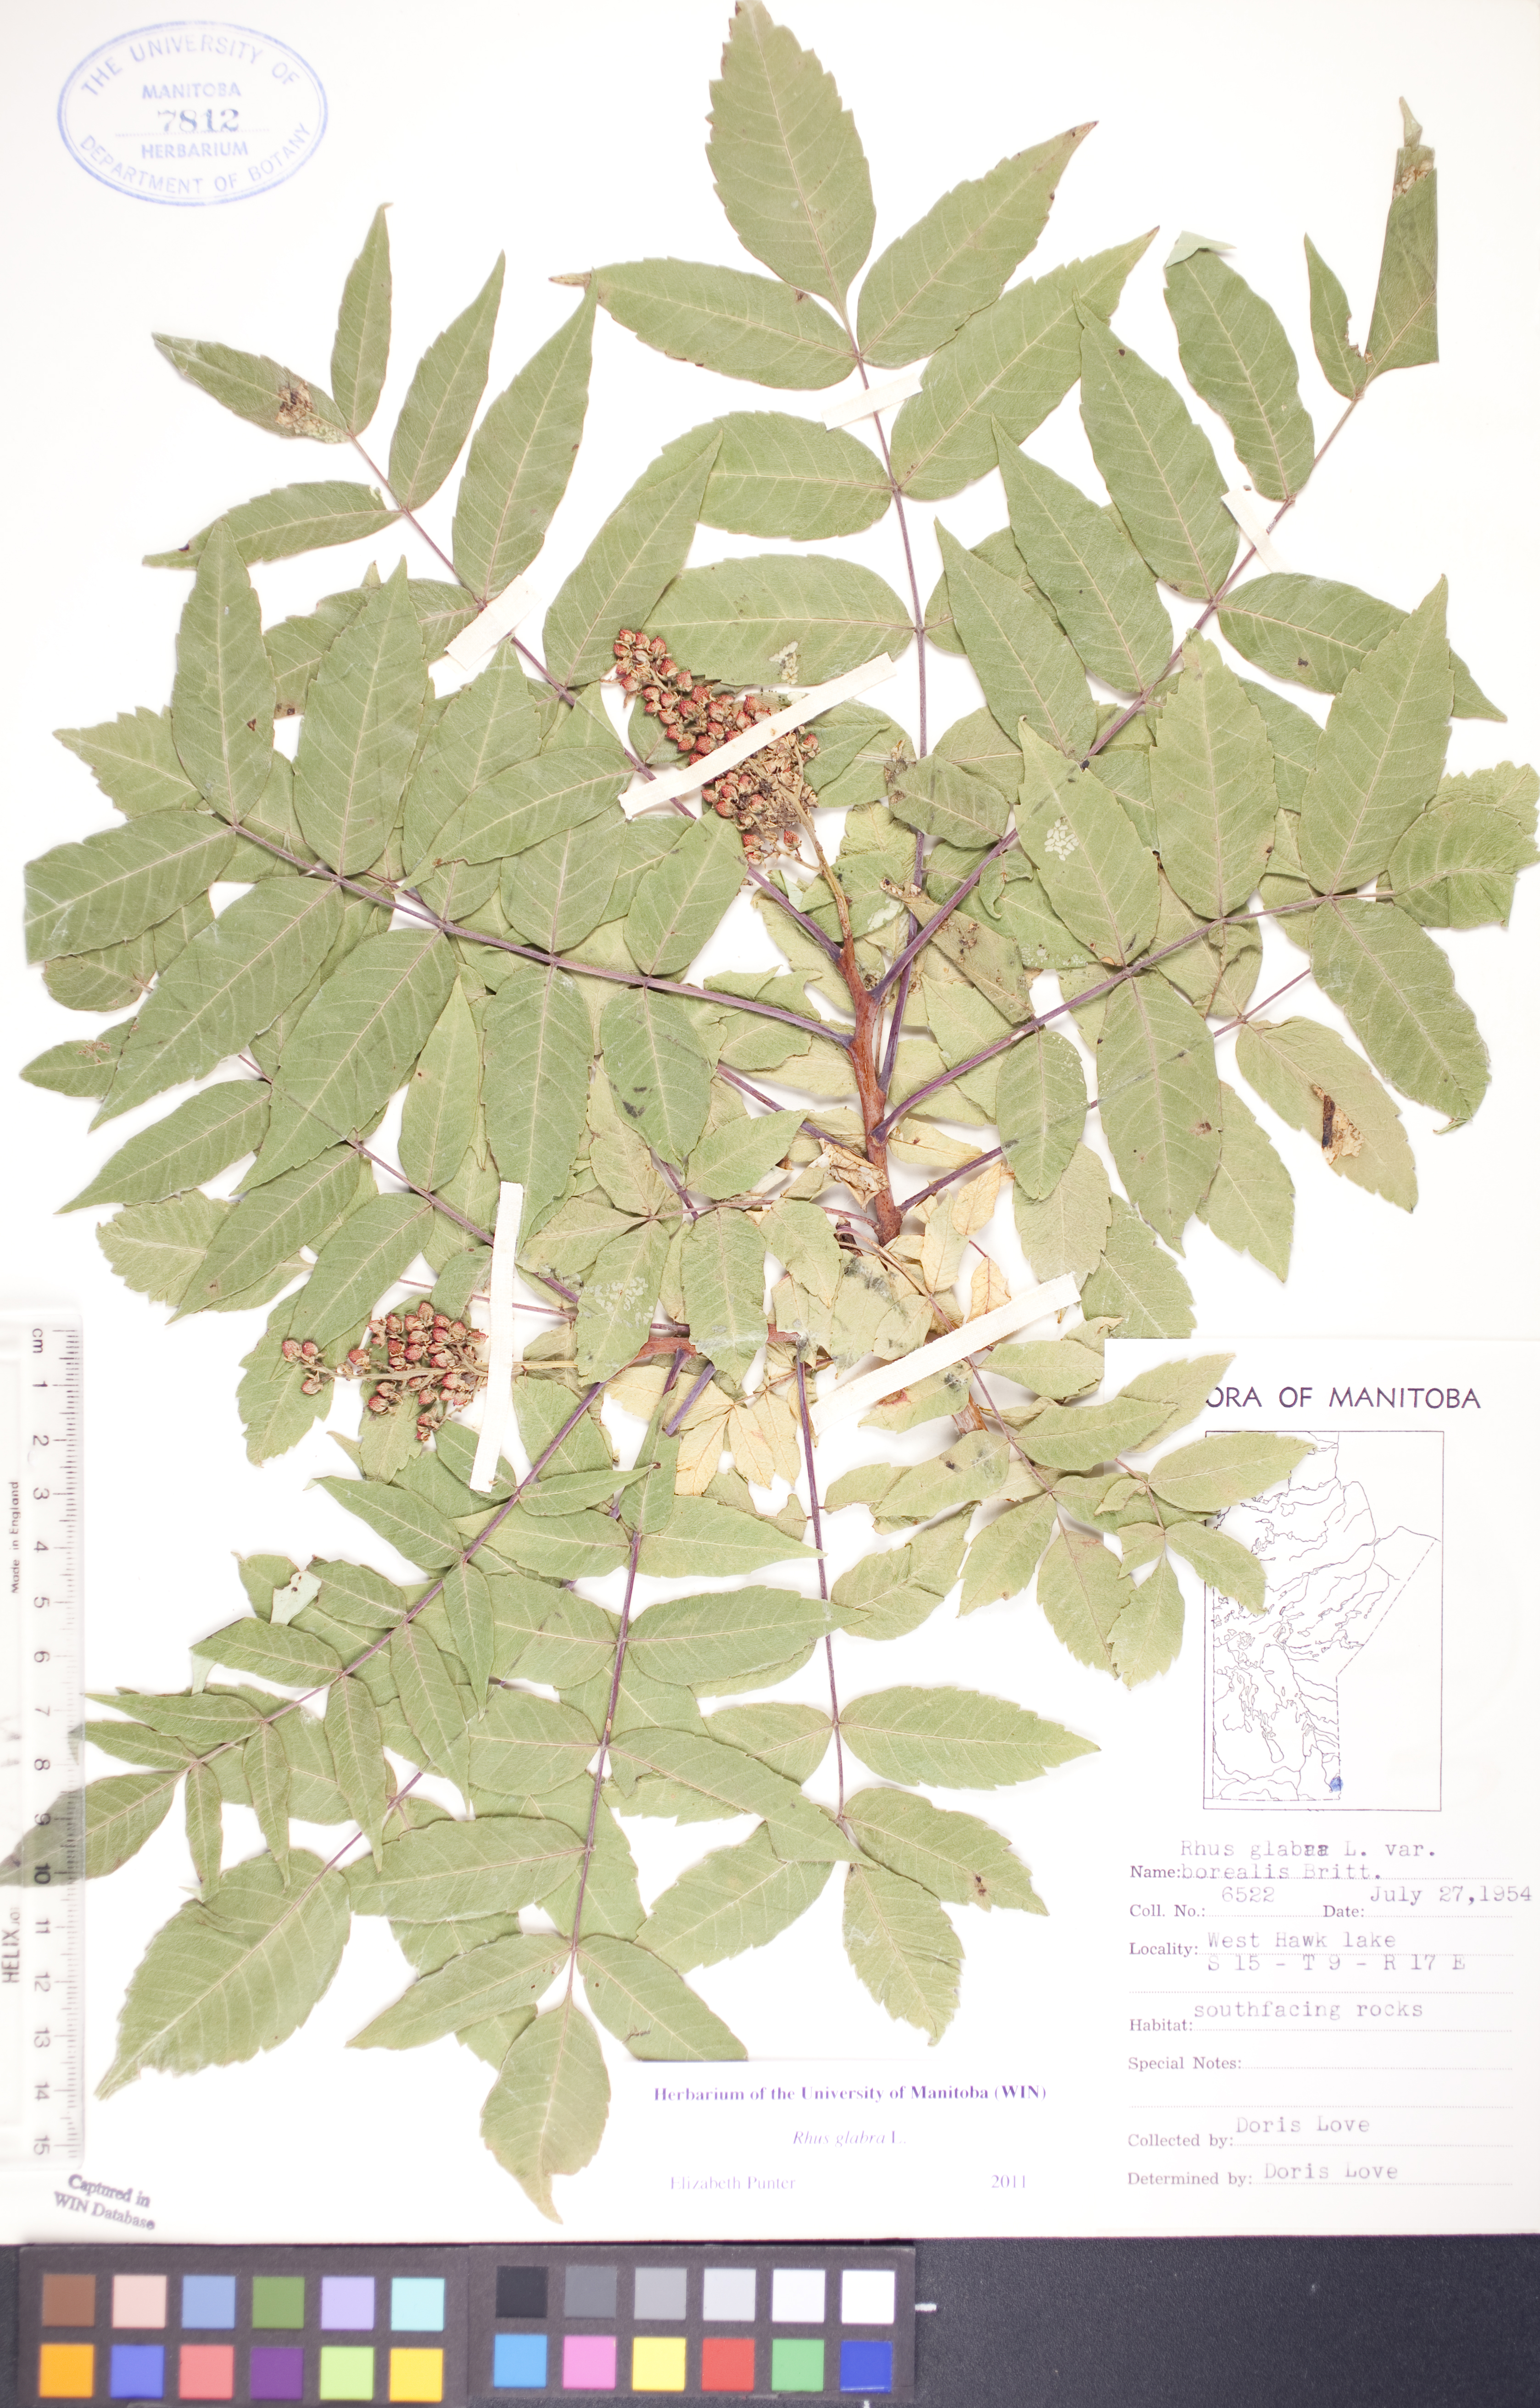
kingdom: Plantae
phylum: Tracheophyta
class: Magnoliopsida
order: Sapindales
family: Anacardiaceae
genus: Rhus
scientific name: Rhus
